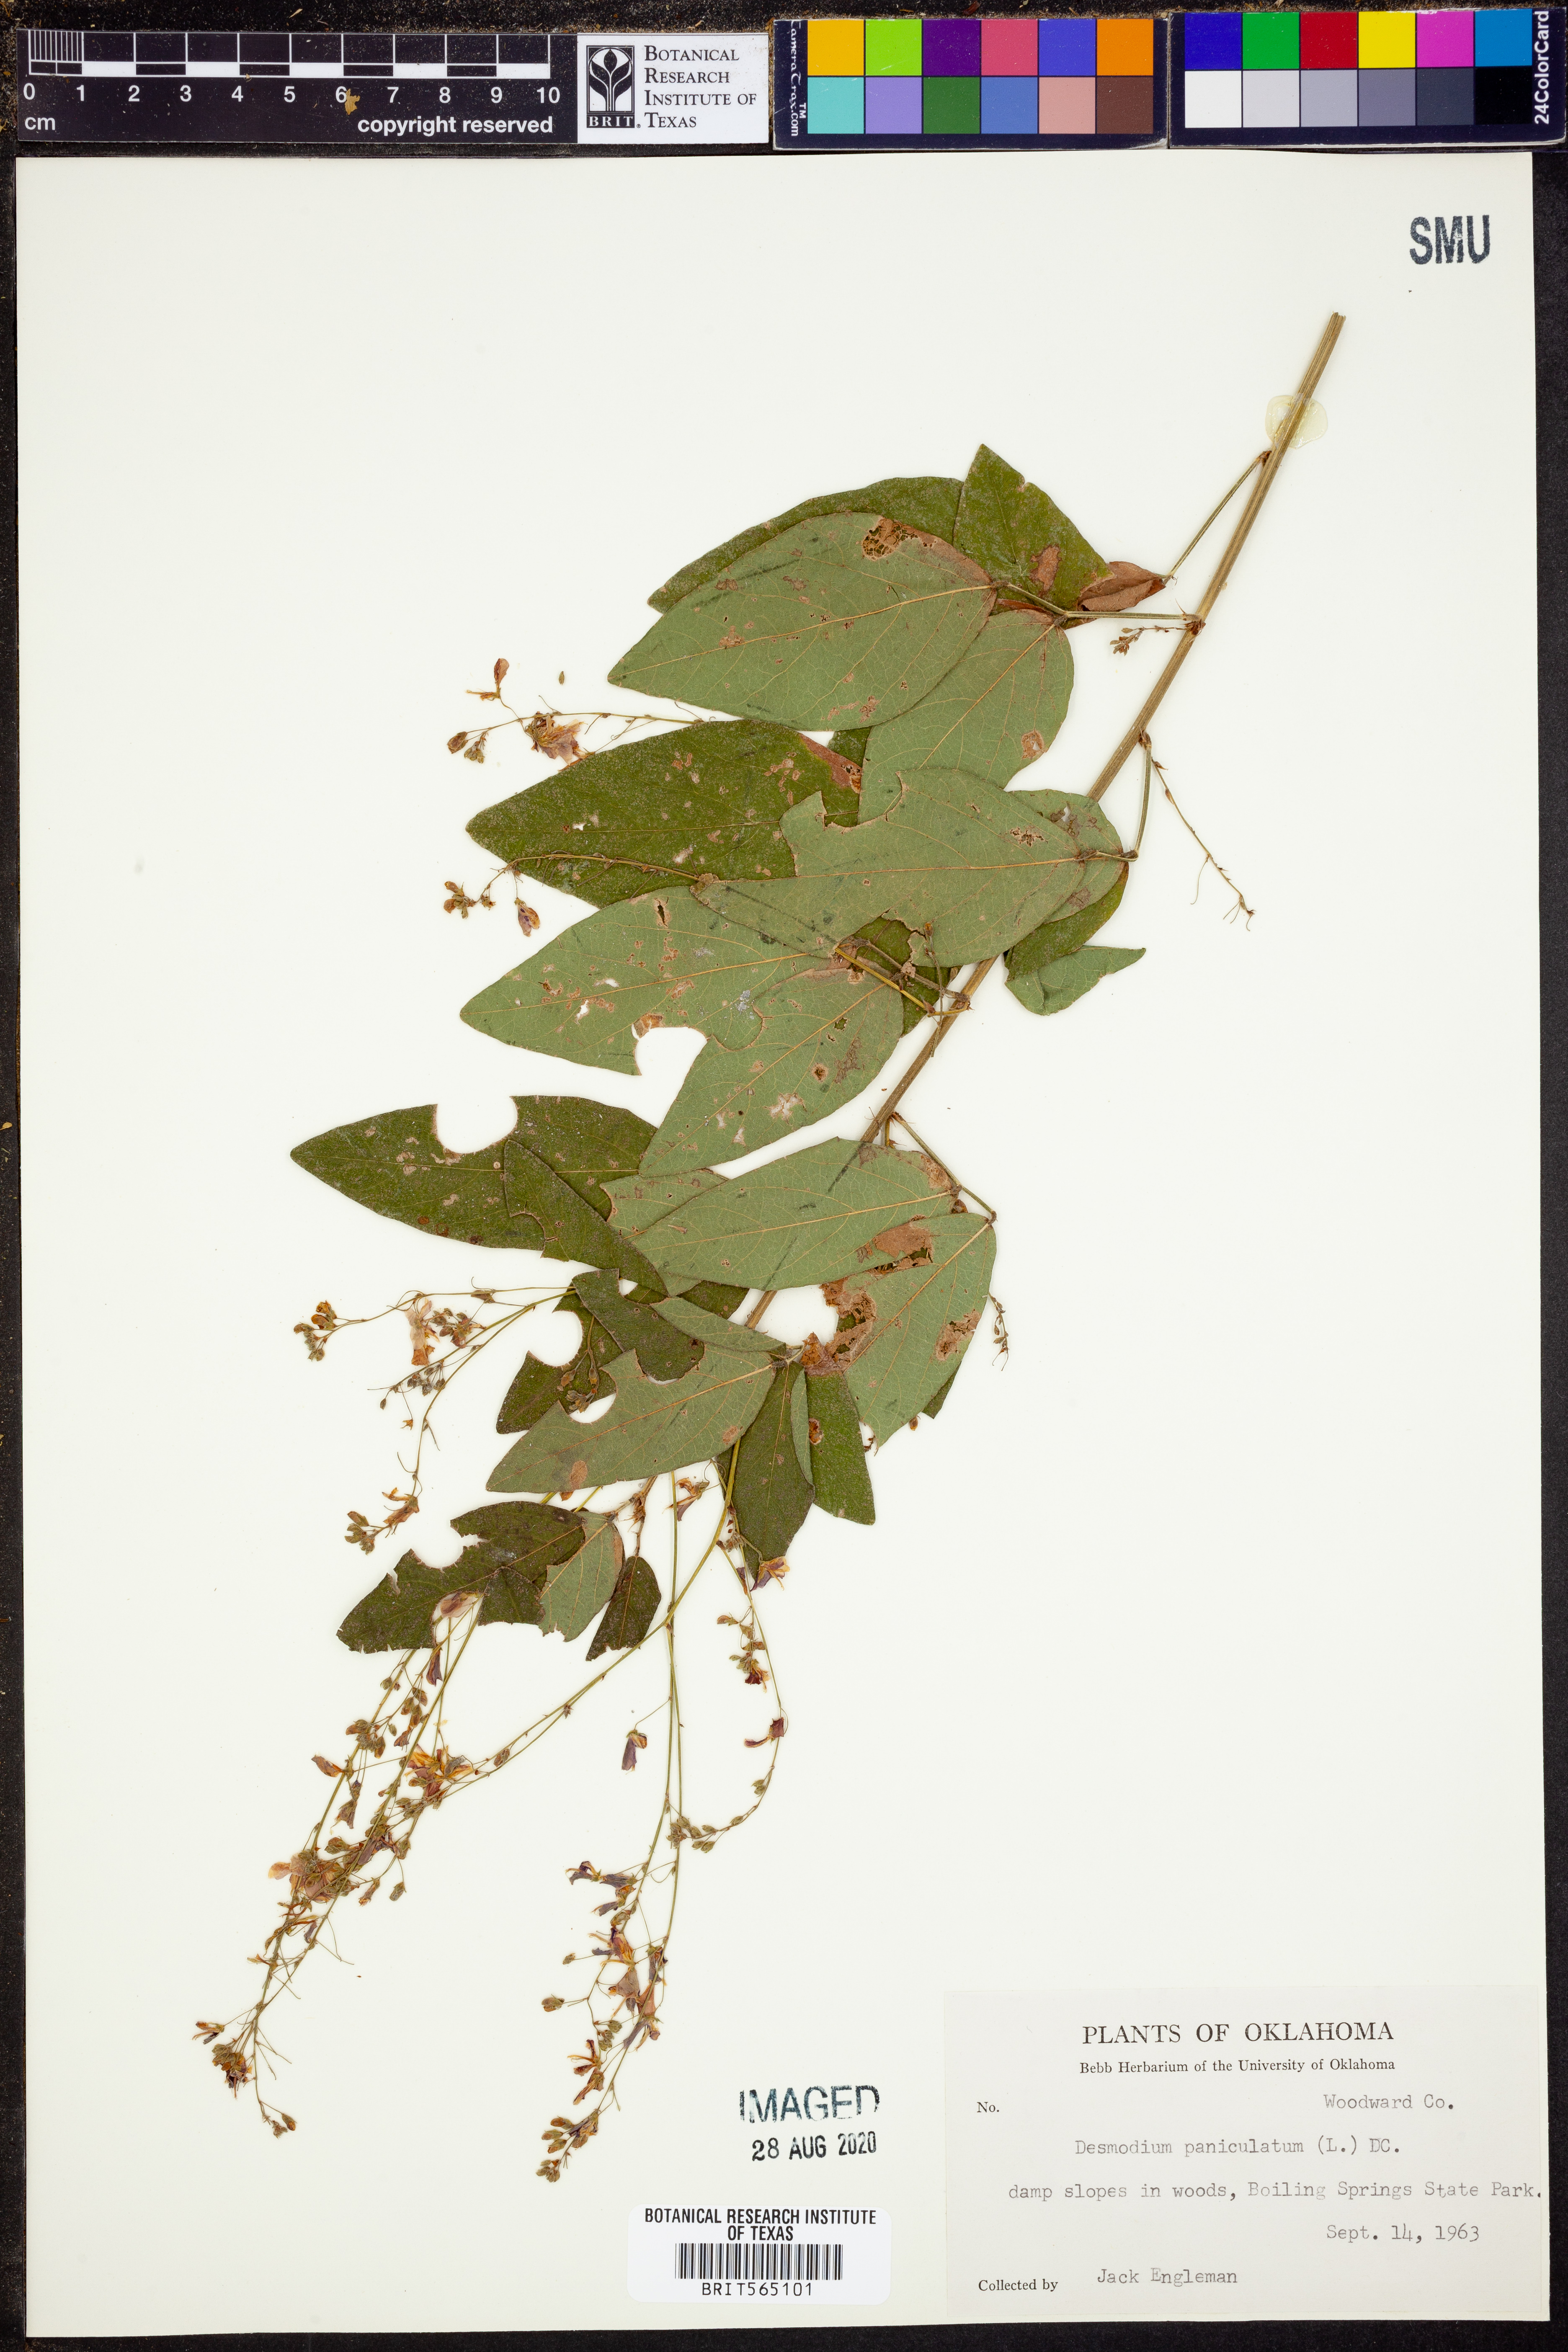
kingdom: Plantae
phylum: Tracheophyta
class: Magnoliopsida
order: Fabales
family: Fabaceae
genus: Desmodium
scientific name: Desmodium paniculatum
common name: Panicled tick-clover
